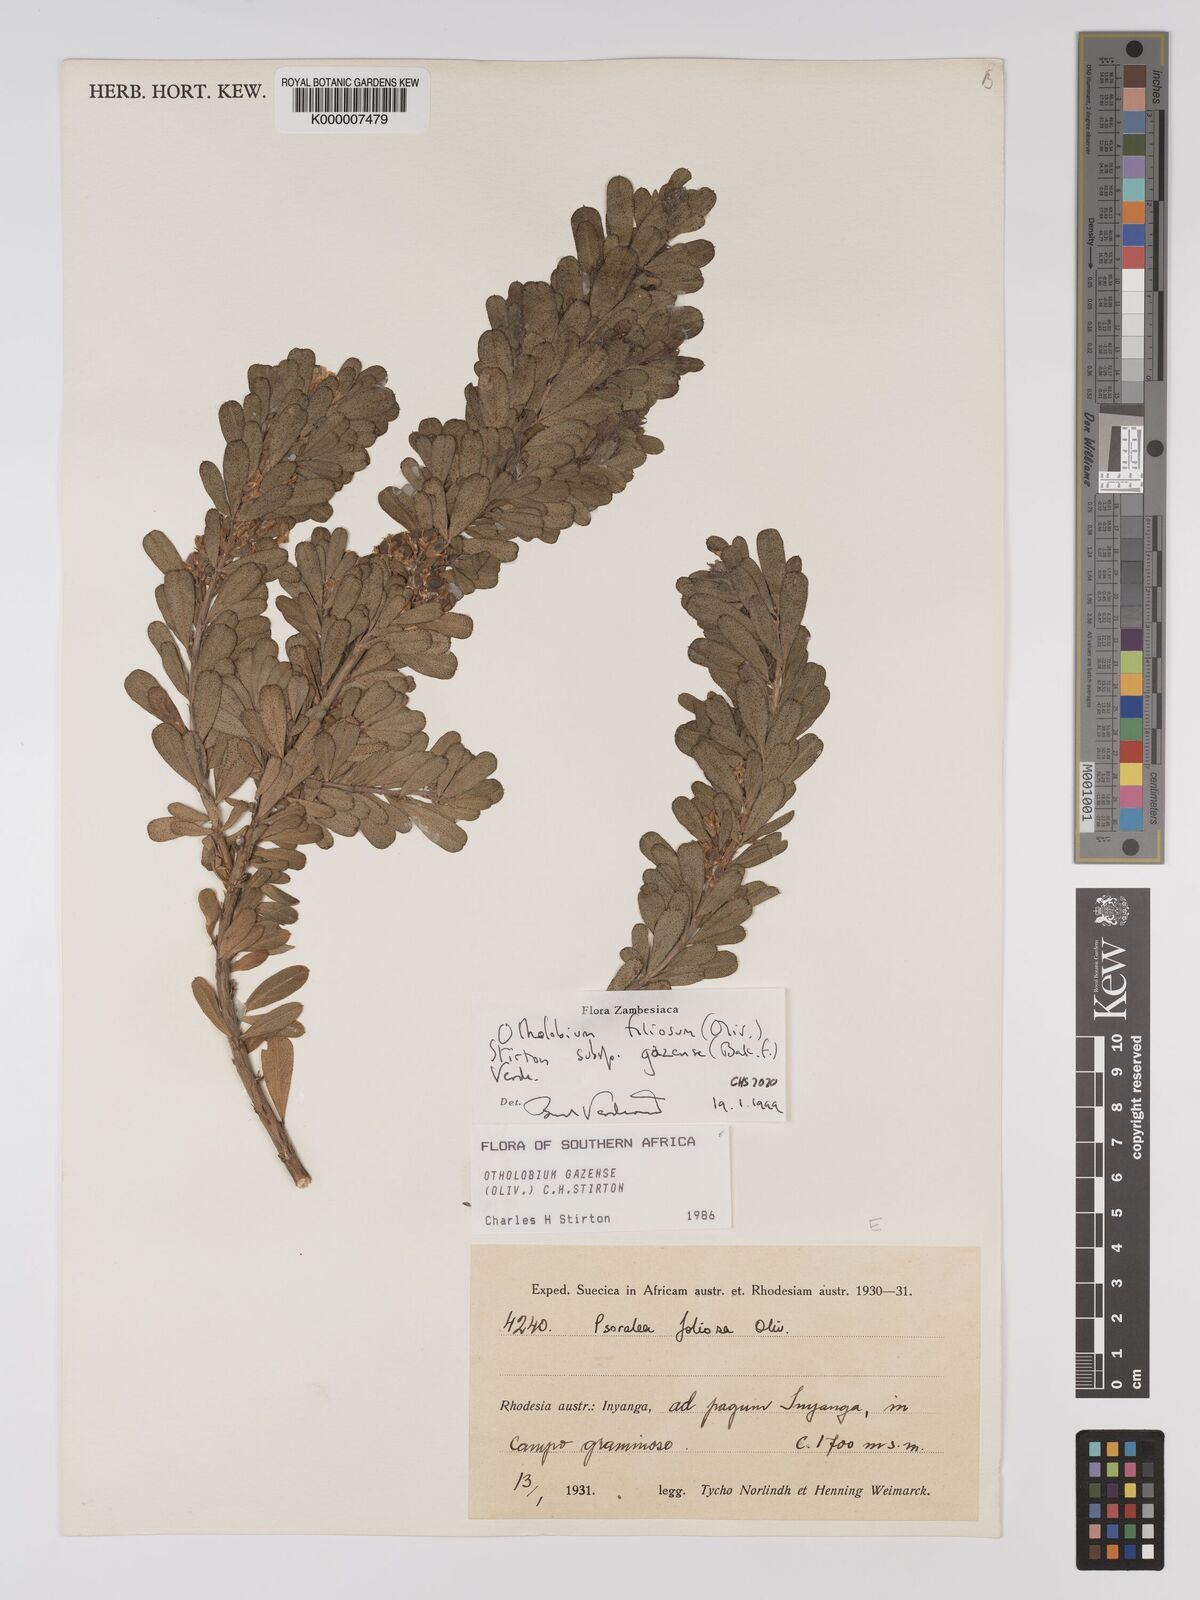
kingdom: Plantae
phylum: Tracheophyta
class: Magnoliopsida
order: Fabales
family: Fabaceae
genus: Psoralea
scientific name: Psoralea foliosa
